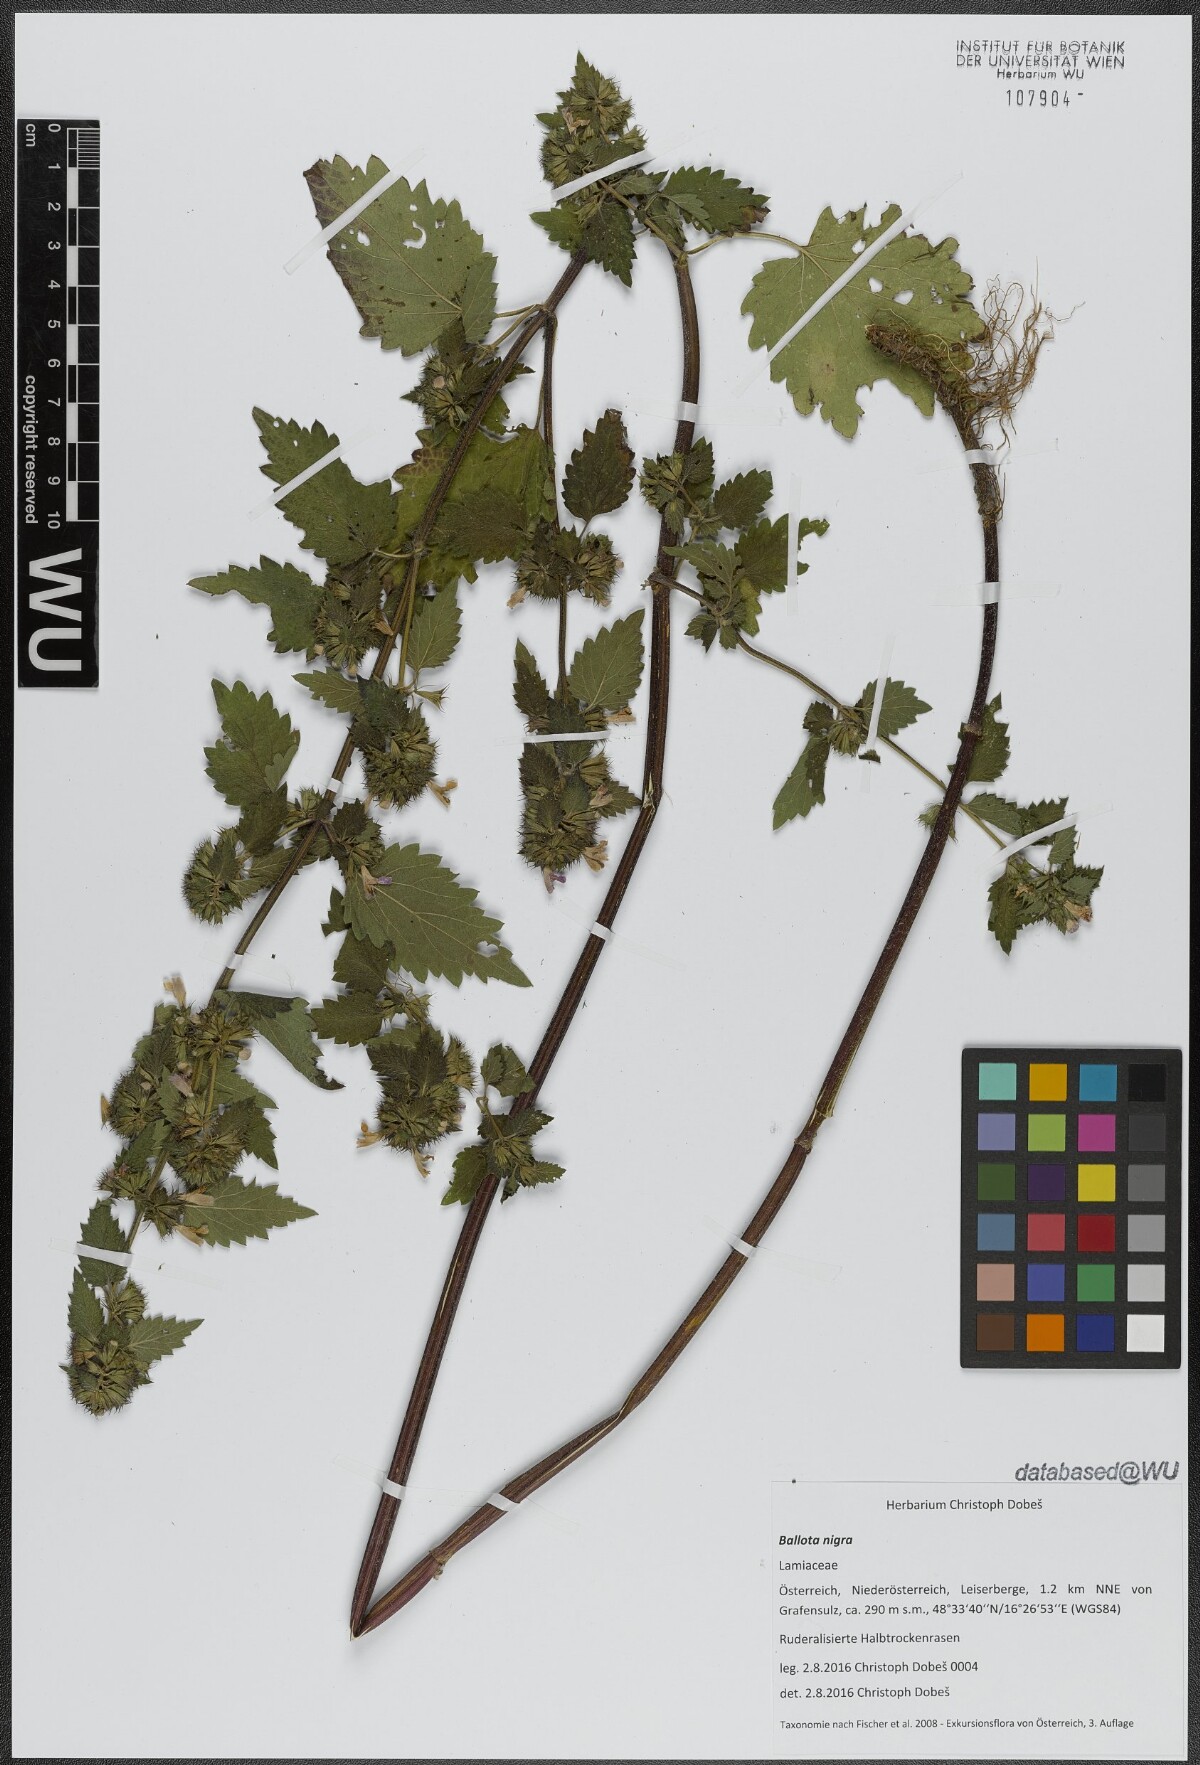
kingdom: Plantae
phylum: Tracheophyta
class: Magnoliopsida
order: Lamiales
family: Lamiaceae
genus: Ballota
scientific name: Ballota nigra
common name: Black horehound
